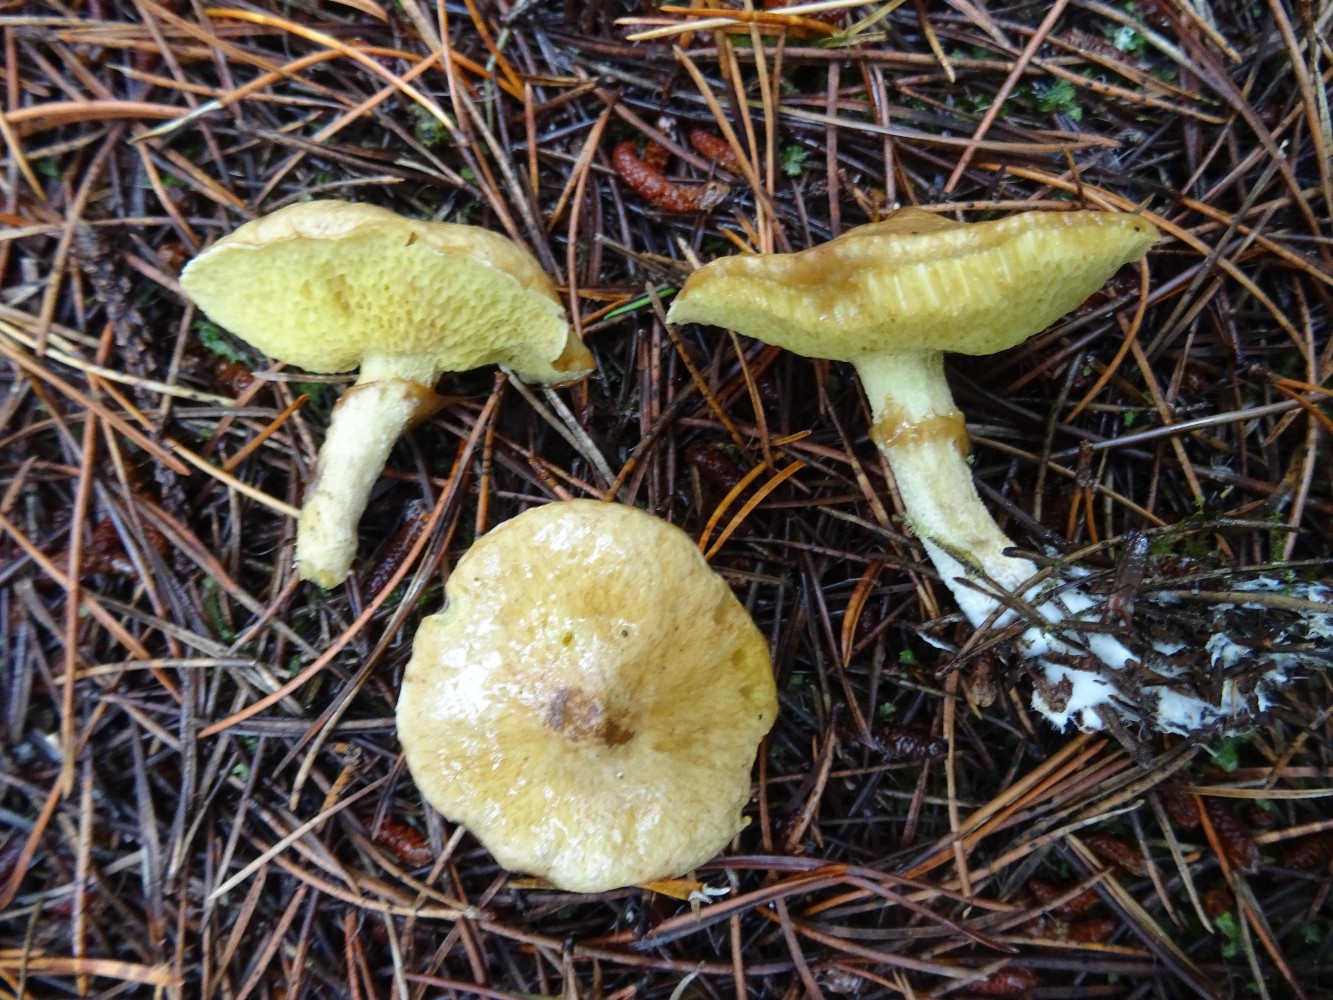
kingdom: Fungi
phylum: Basidiomycota
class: Agaricomycetes
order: Boletales
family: Suillaceae
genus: Suillus
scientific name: Suillus flavidus
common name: mose-slimrørhat
